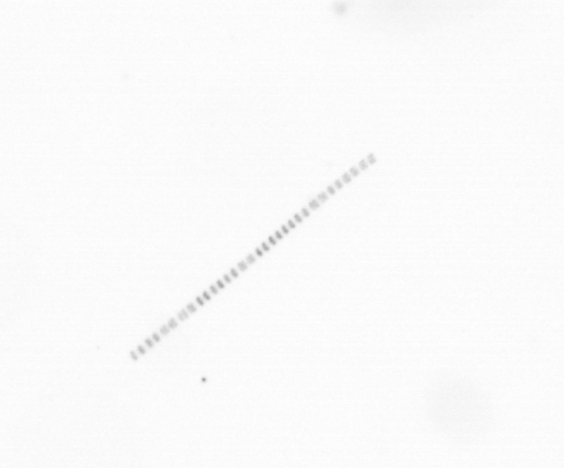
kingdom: Chromista
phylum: Ochrophyta
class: Bacillariophyceae
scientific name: Bacillariophyceae
